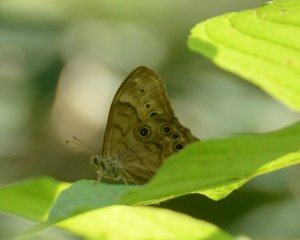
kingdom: Animalia
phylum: Arthropoda
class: Insecta
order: Lepidoptera
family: Nymphalidae
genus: Lethe
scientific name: Lethe anthedon
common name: Northern Pearly-Eye
